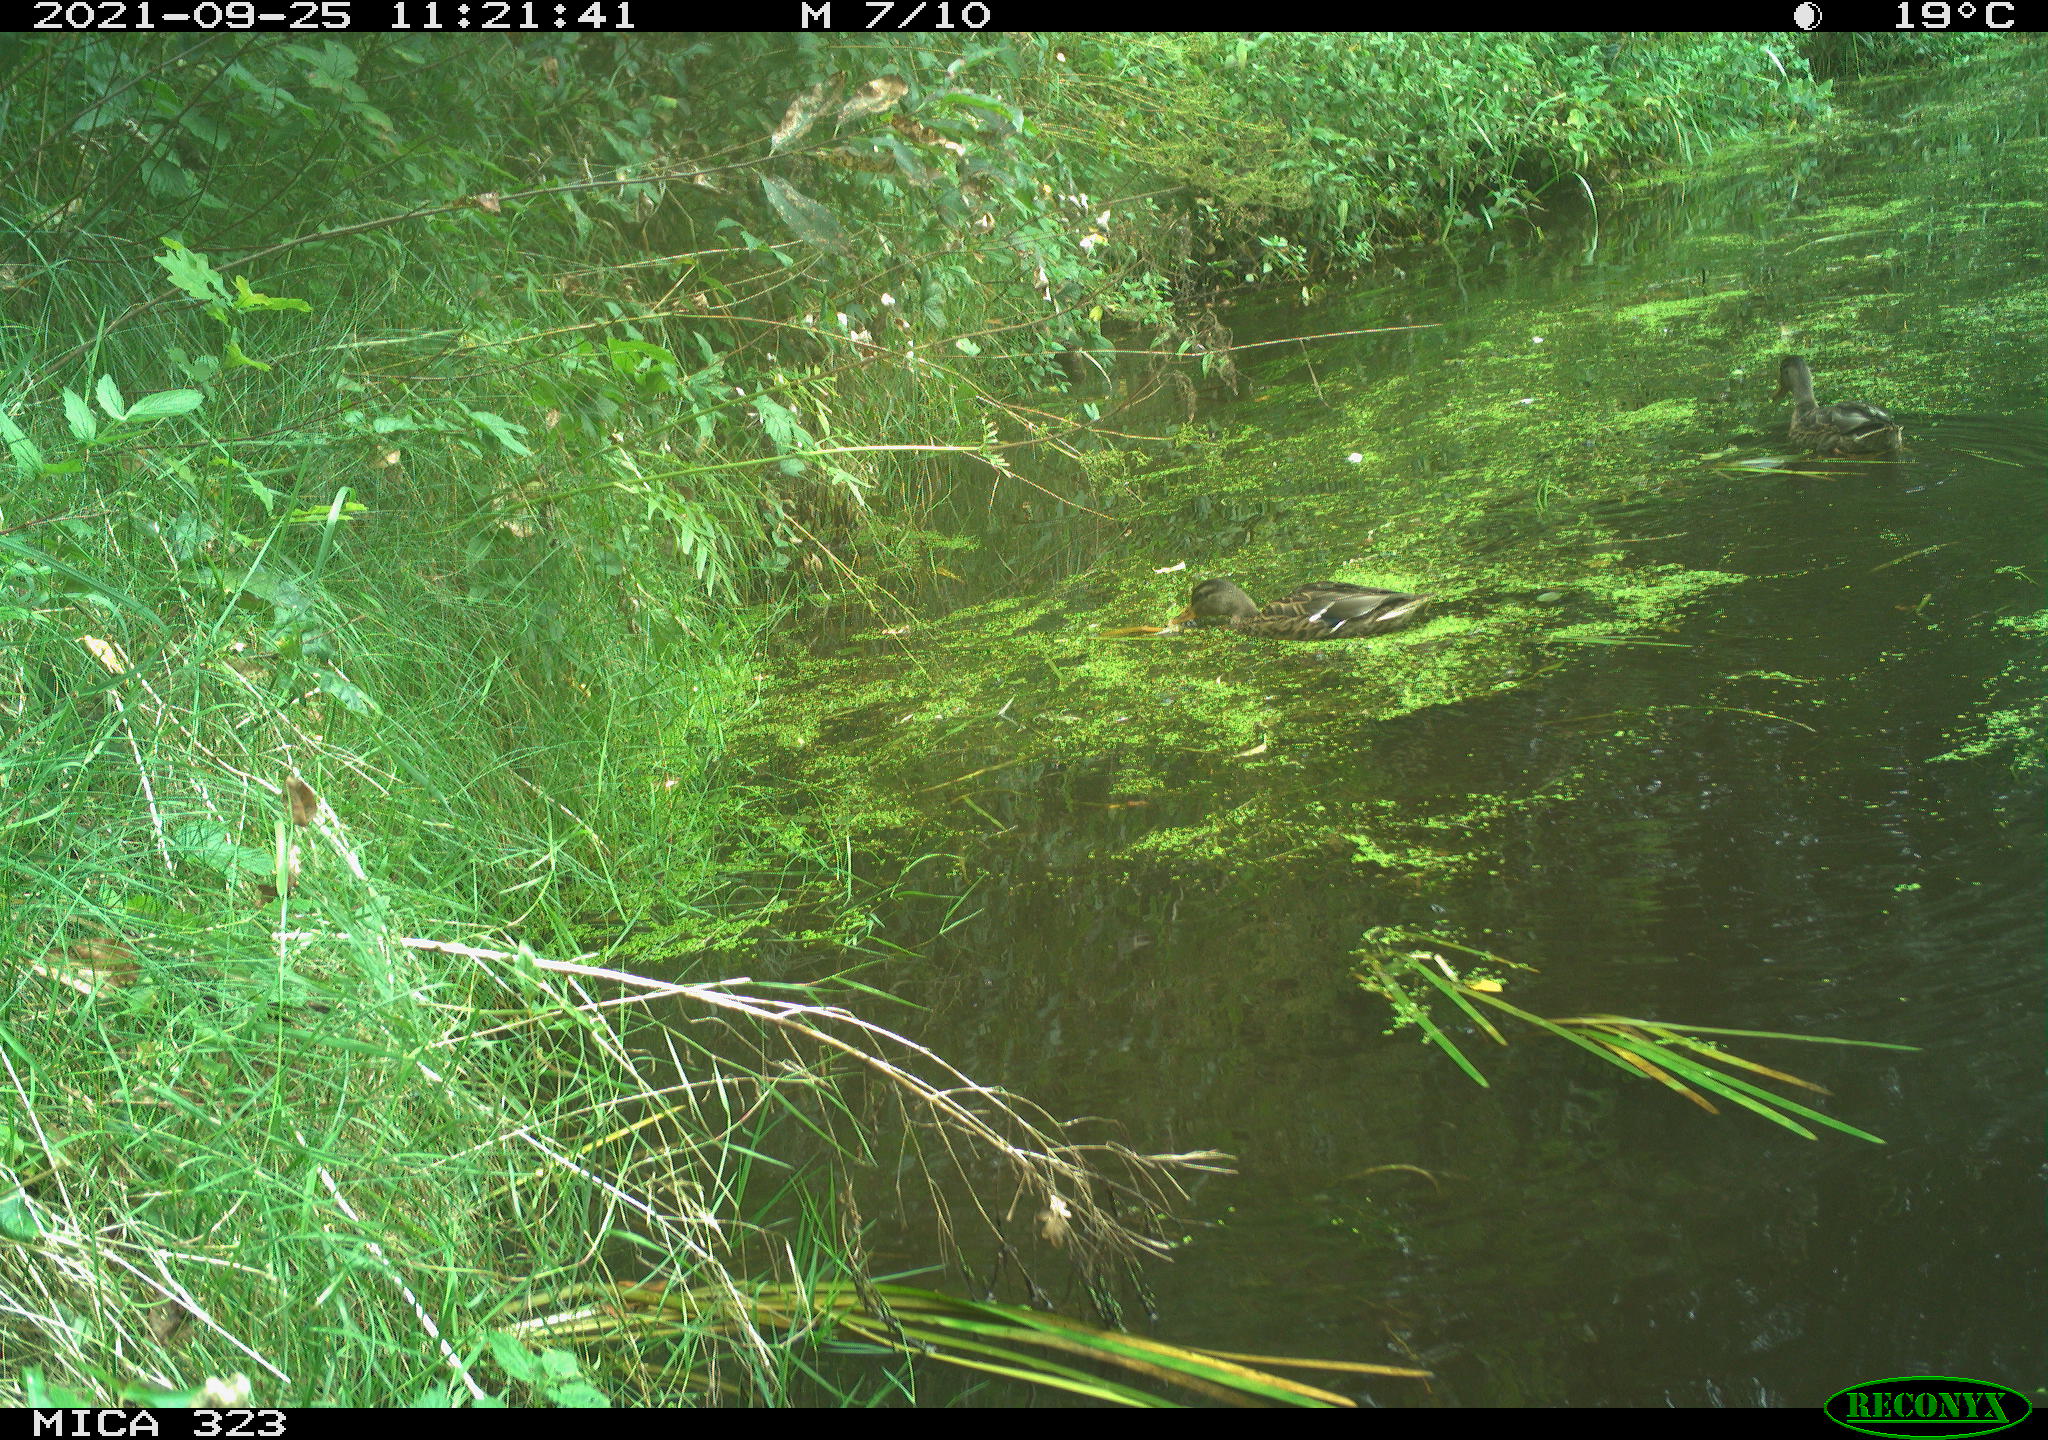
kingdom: Animalia
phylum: Chordata
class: Aves
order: Anseriformes
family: Anatidae
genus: Anas
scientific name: Anas platyrhynchos
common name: Mallard
